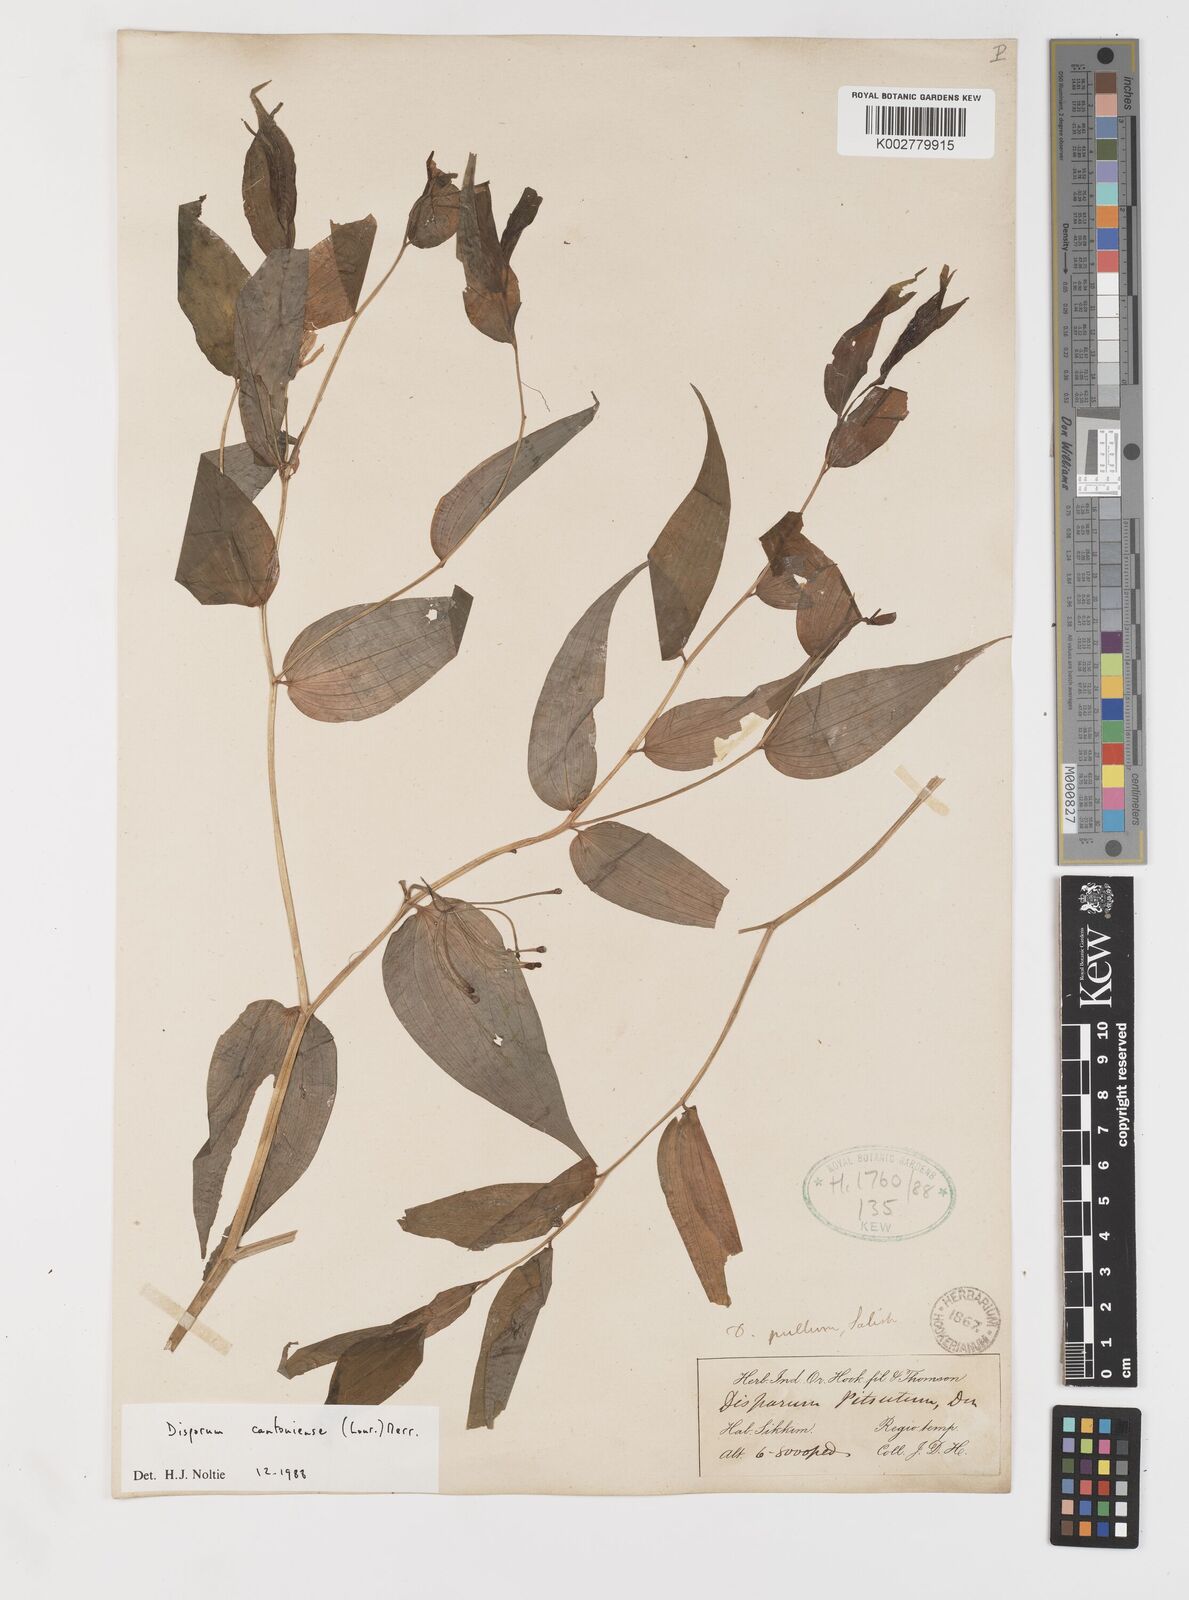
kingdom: Plantae
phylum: Tracheophyta
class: Liliopsida
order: Liliales
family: Colchicaceae
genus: Disporum
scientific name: Disporum cantoniense
